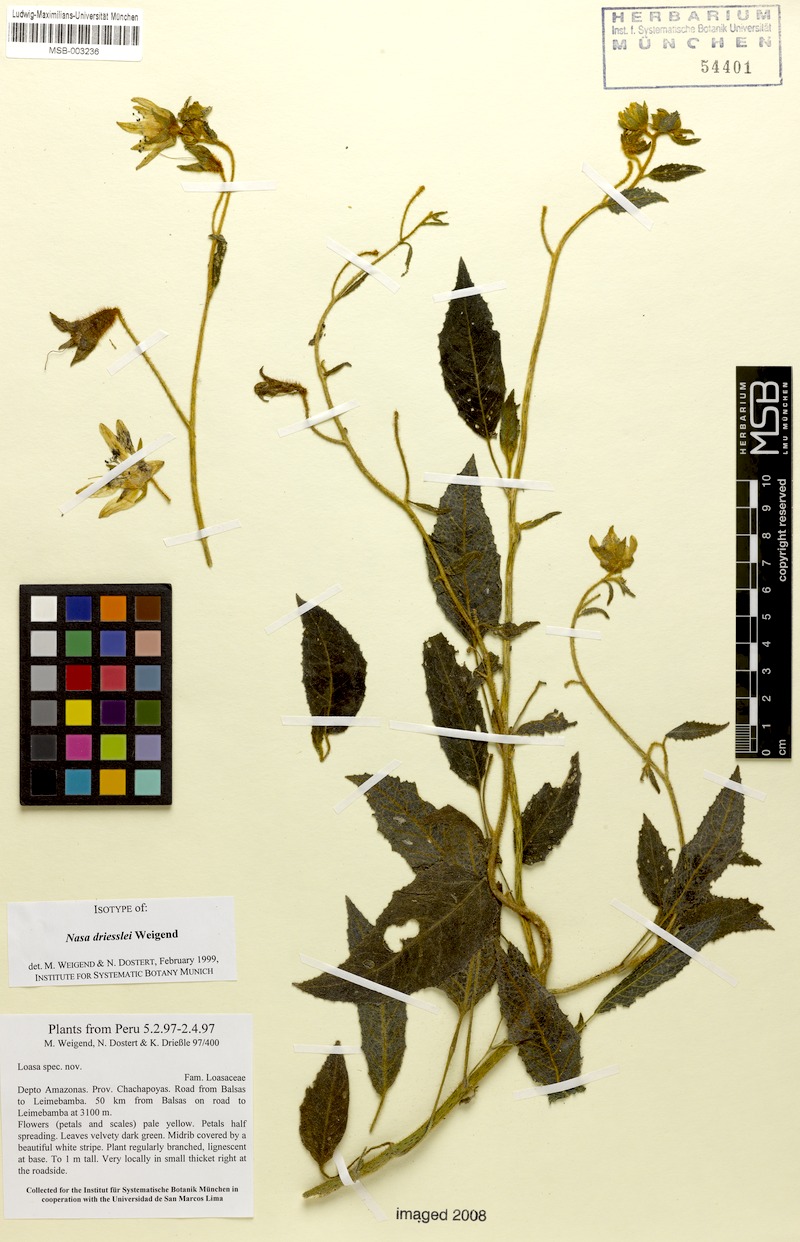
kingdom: Plantae
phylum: Tracheophyta
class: Magnoliopsida
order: Cornales
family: Loasaceae
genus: Nasa
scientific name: Nasa driessleae
